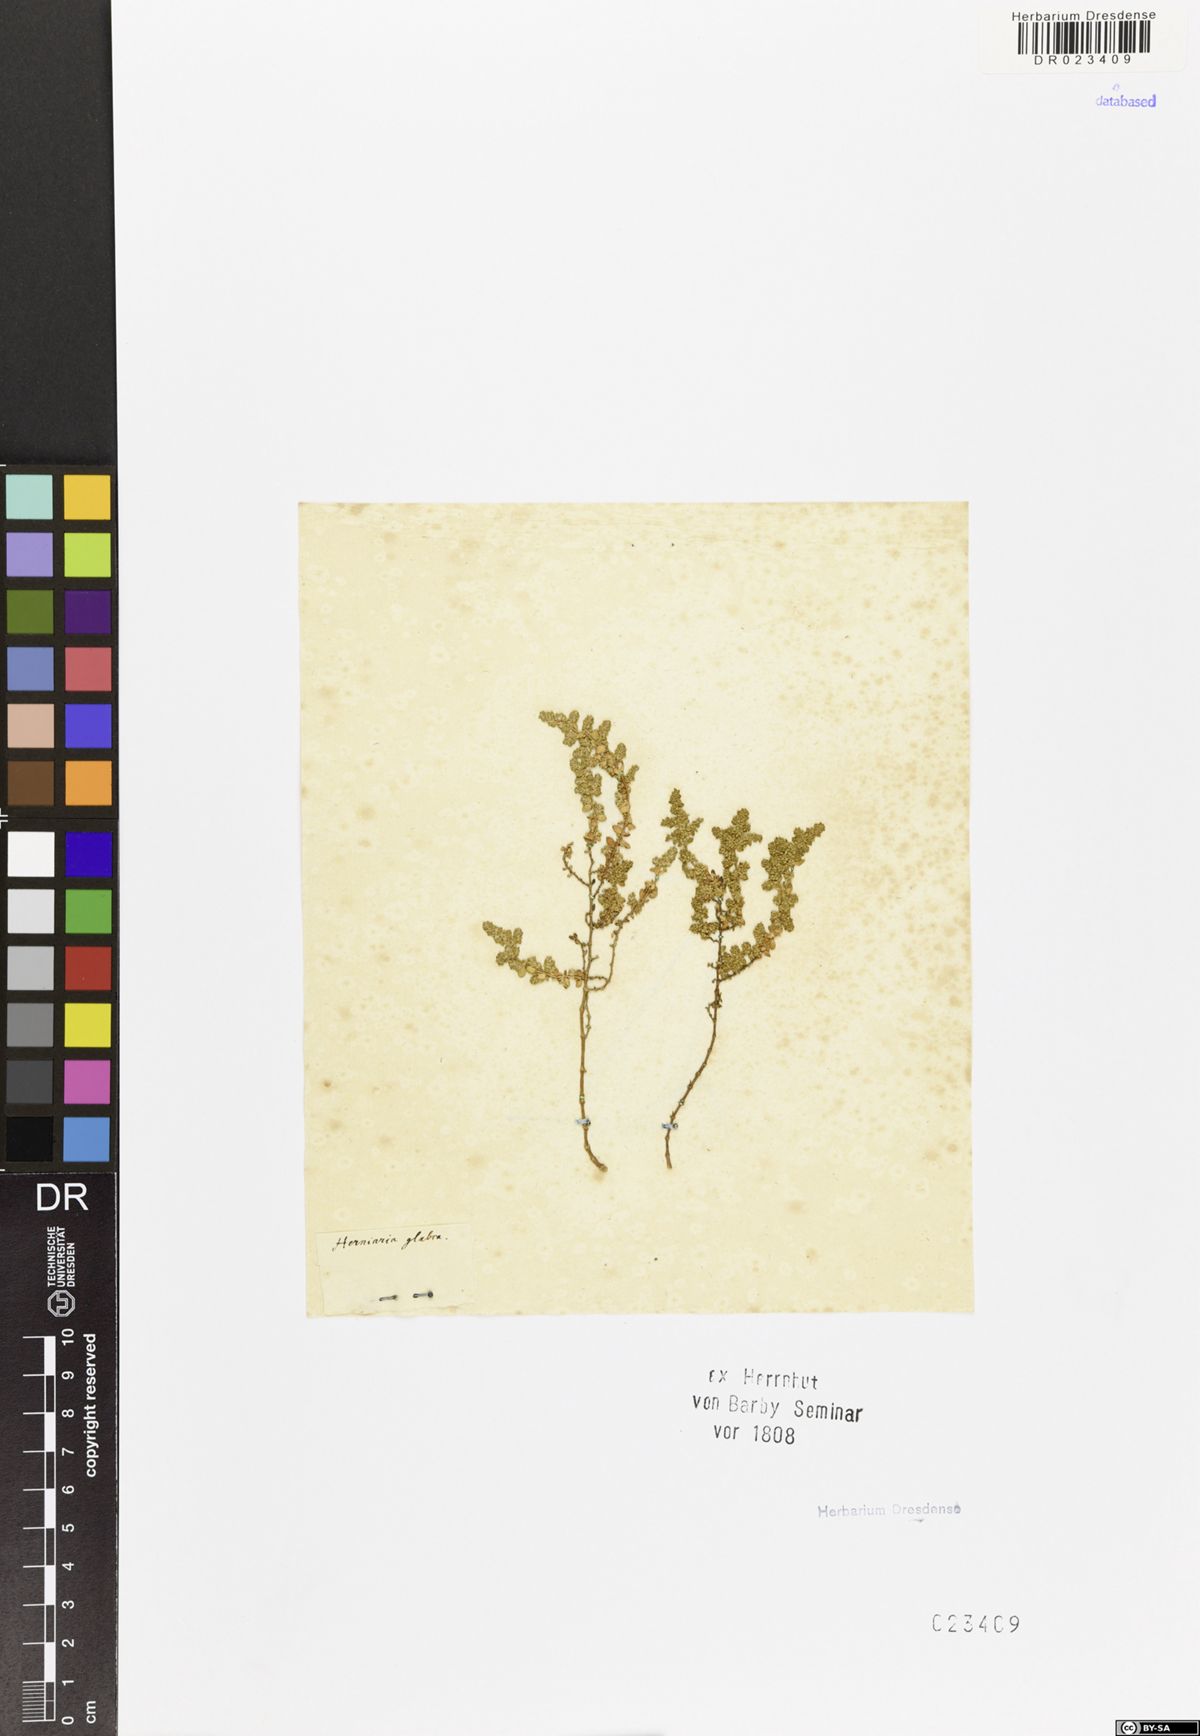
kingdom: Plantae
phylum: Tracheophyta
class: Magnoliopsida
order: Caryophyllales
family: Caryophyllaceae
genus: Herniaria
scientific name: Herniaria glabra
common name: Smooth rupturewort
